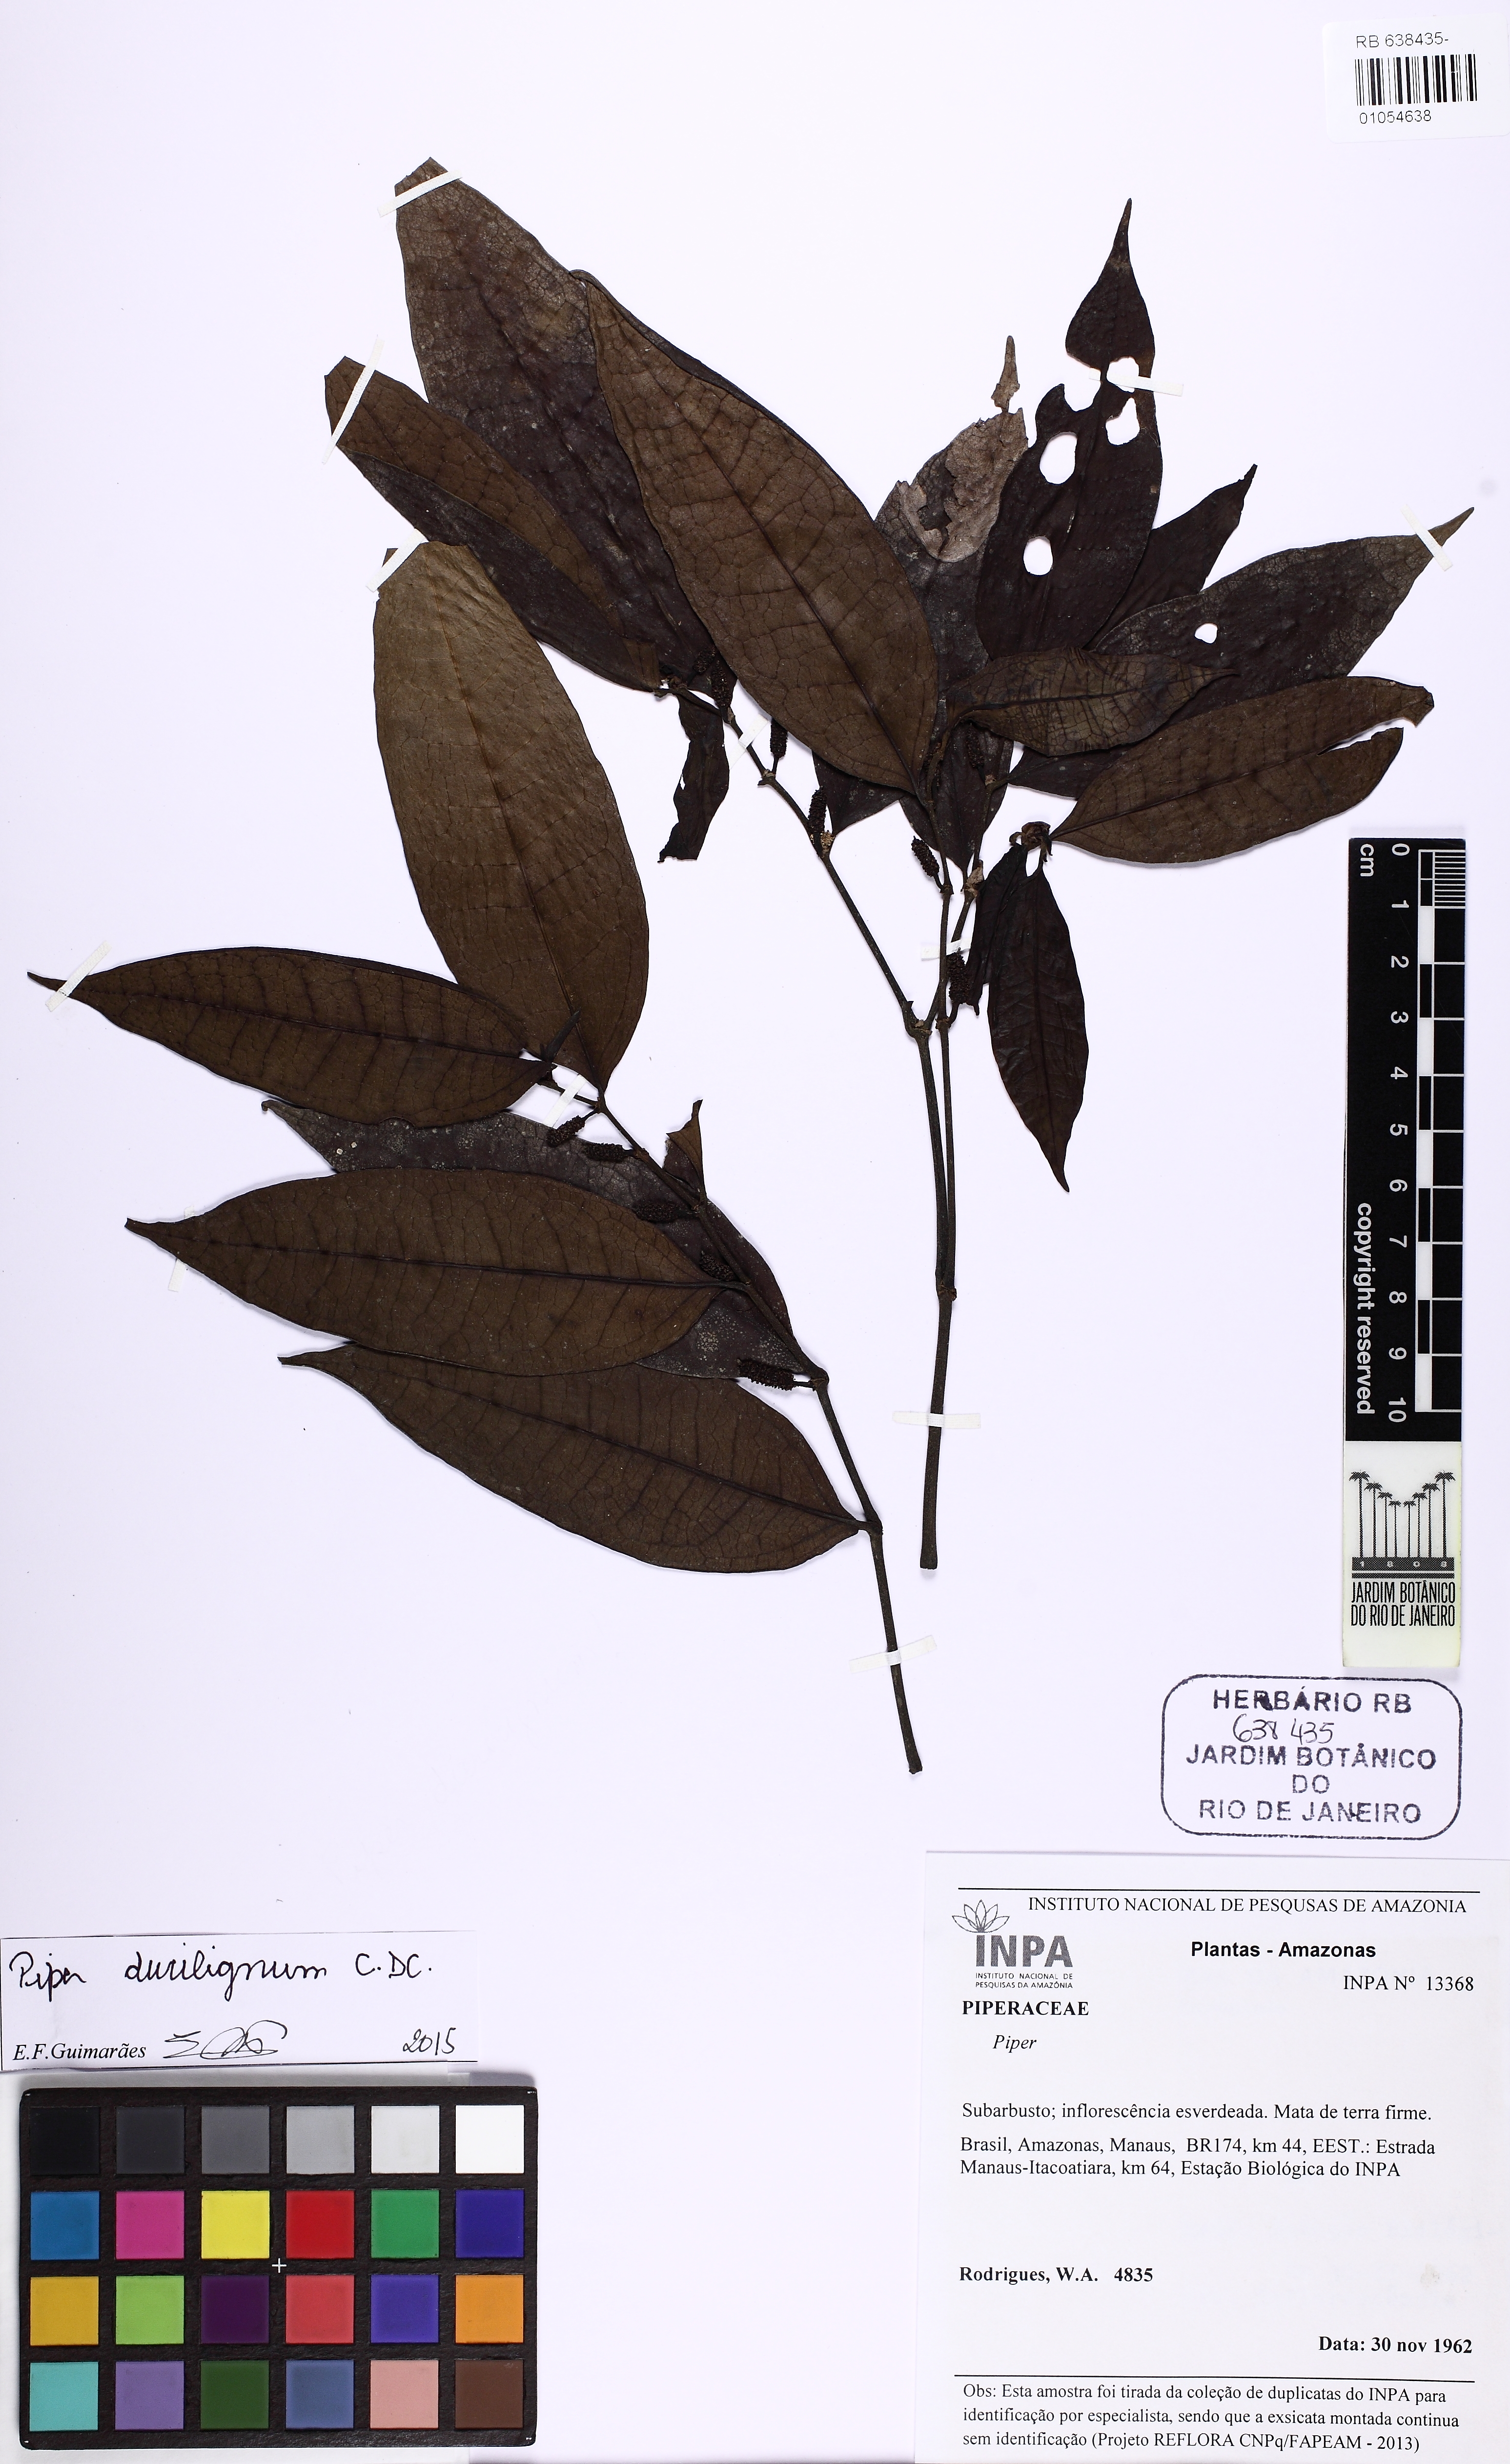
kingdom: Plantae
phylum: Tracheophyta
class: Magnoliopsida
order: Piperales
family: Piperaceae
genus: Piper
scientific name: Piper durilignum
